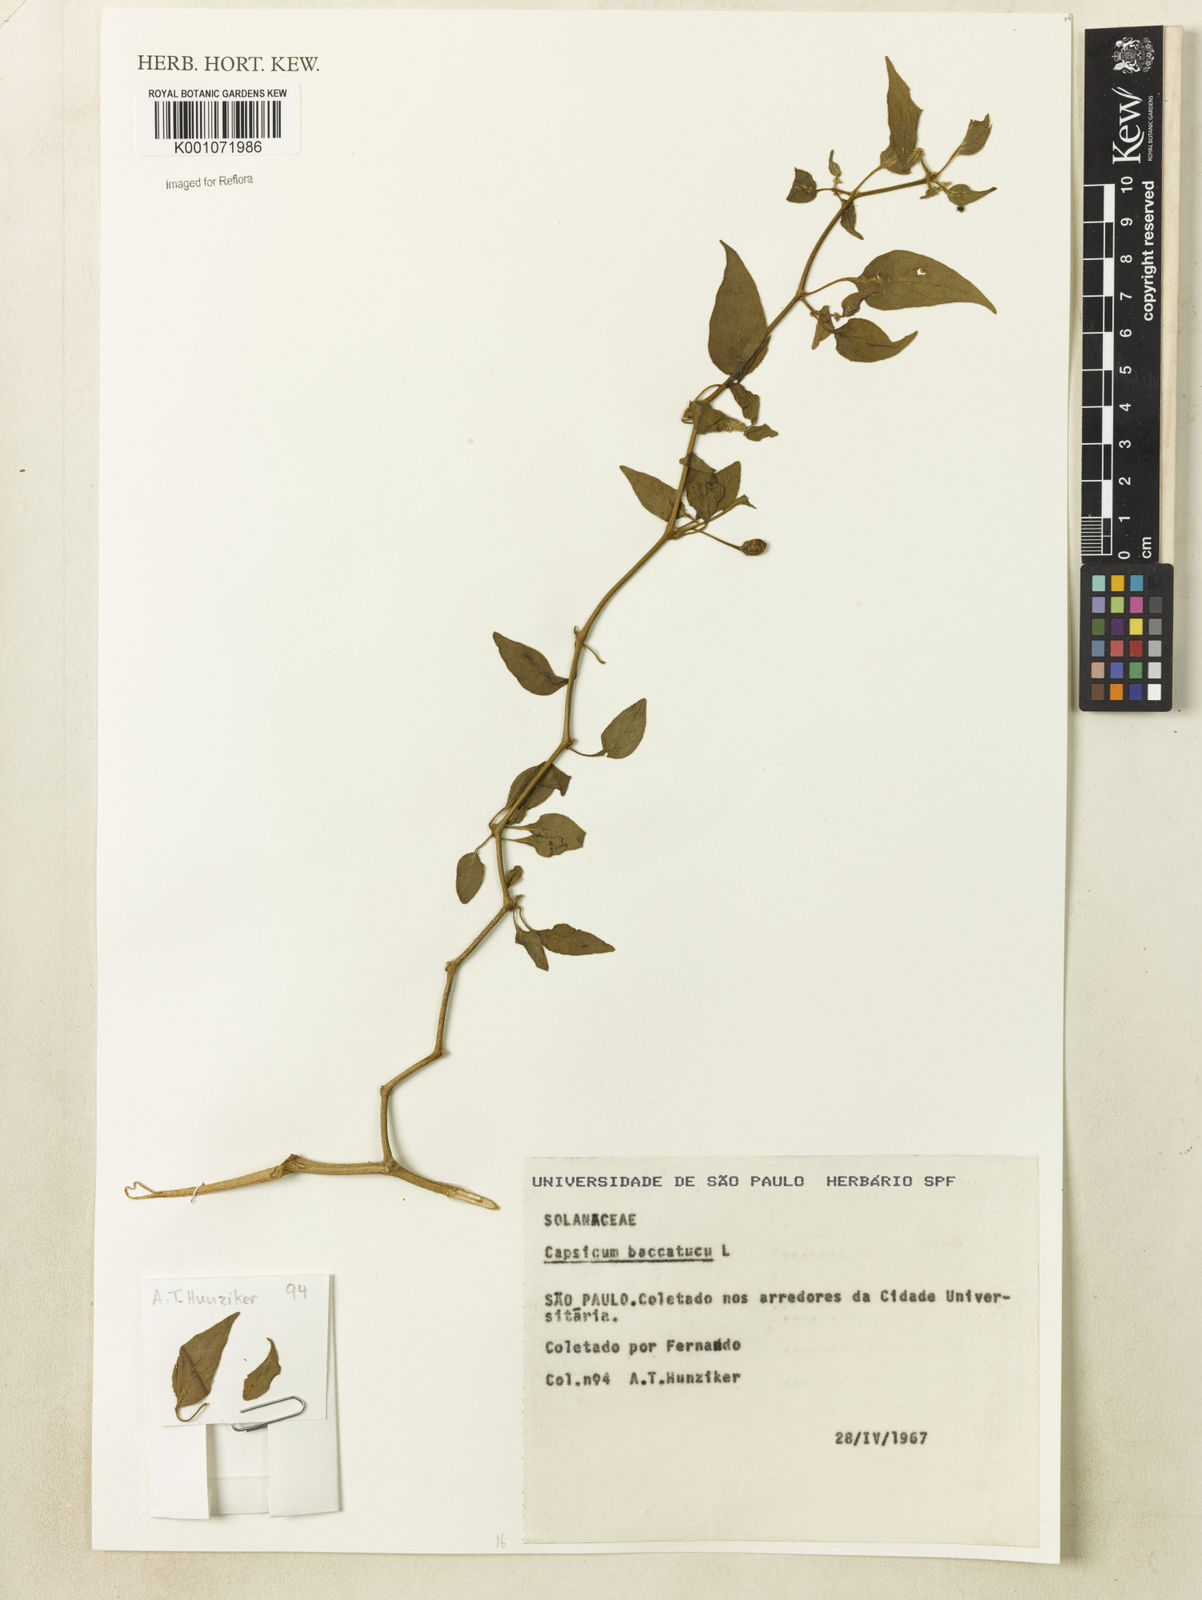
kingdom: Plantae
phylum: Tracheophyta
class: Magnoliopsida
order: Solanales
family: Solanaceae
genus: Capsicum
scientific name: Capsicum baccatum
